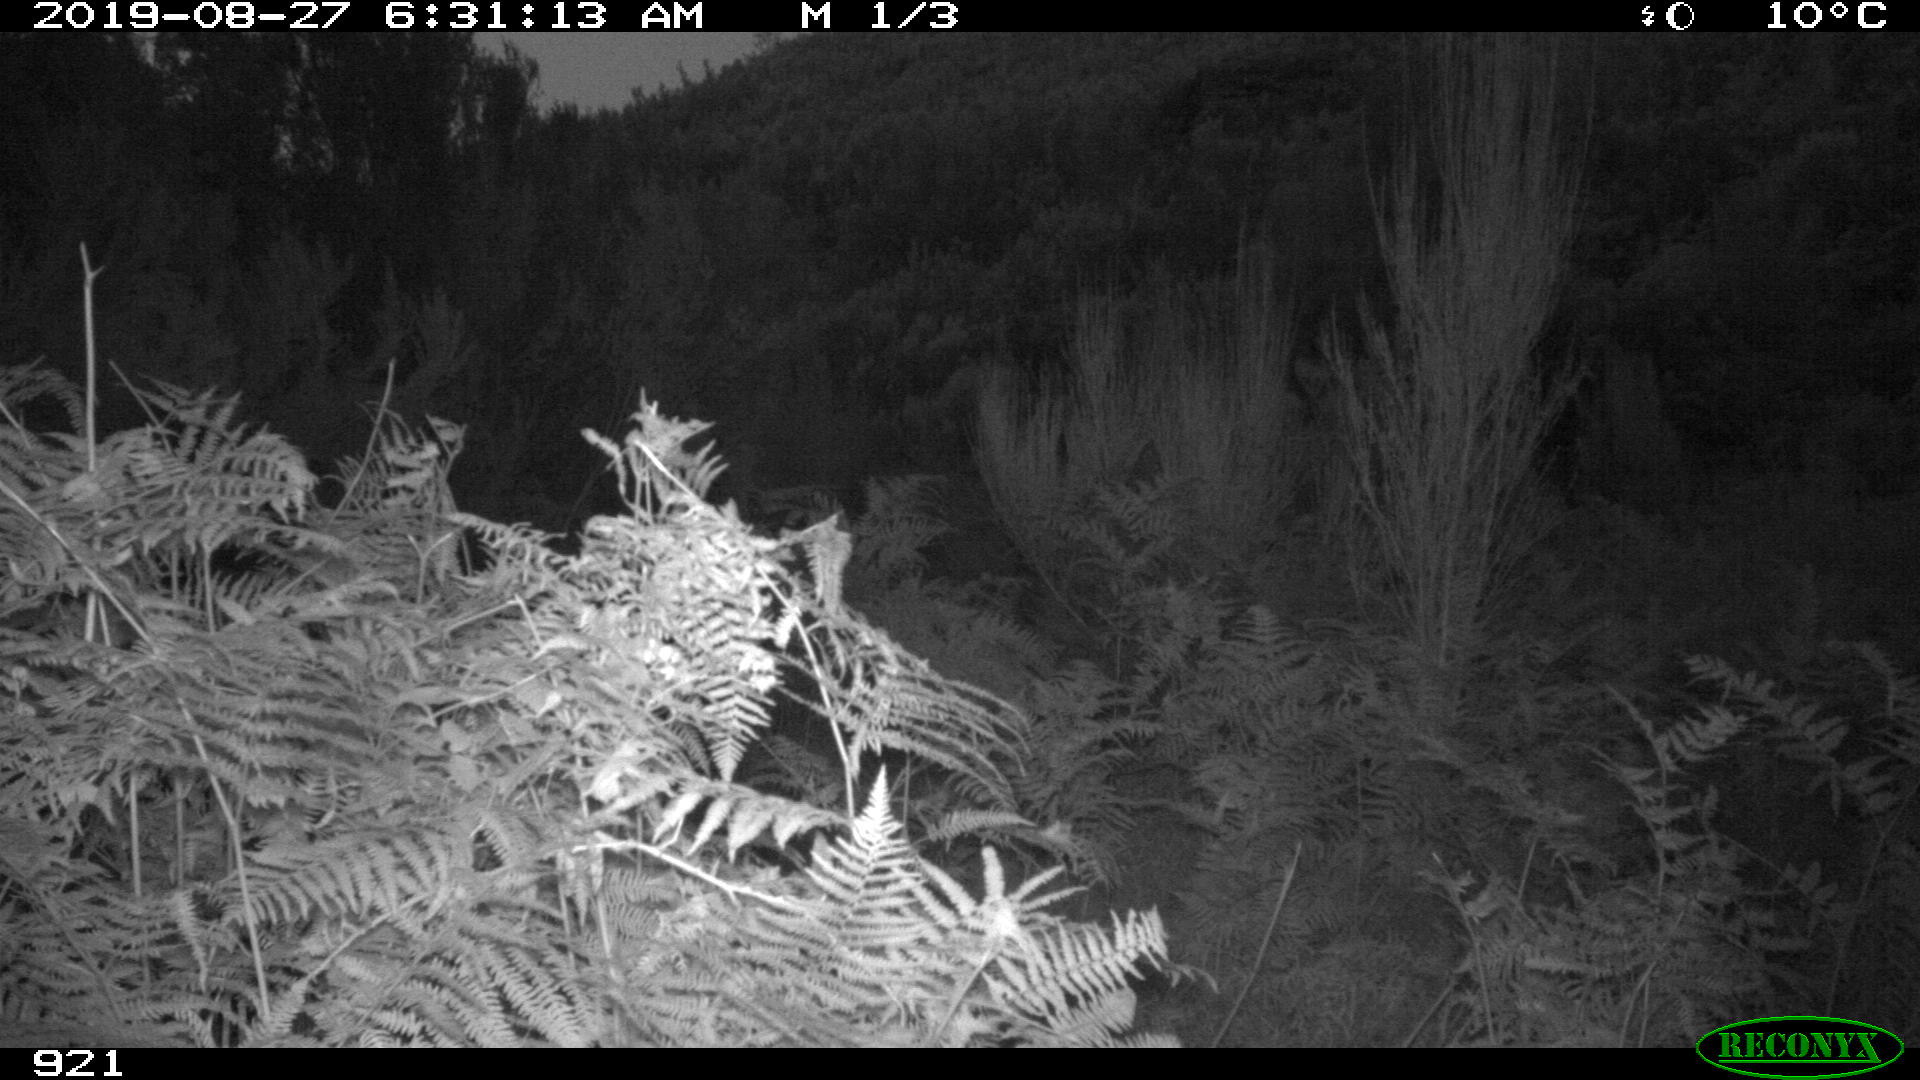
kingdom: Animalia
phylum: Chordata
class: Mammalia
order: Artiodactyla
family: Suidae
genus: Sus
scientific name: Sus scrofa
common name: Wild boar
